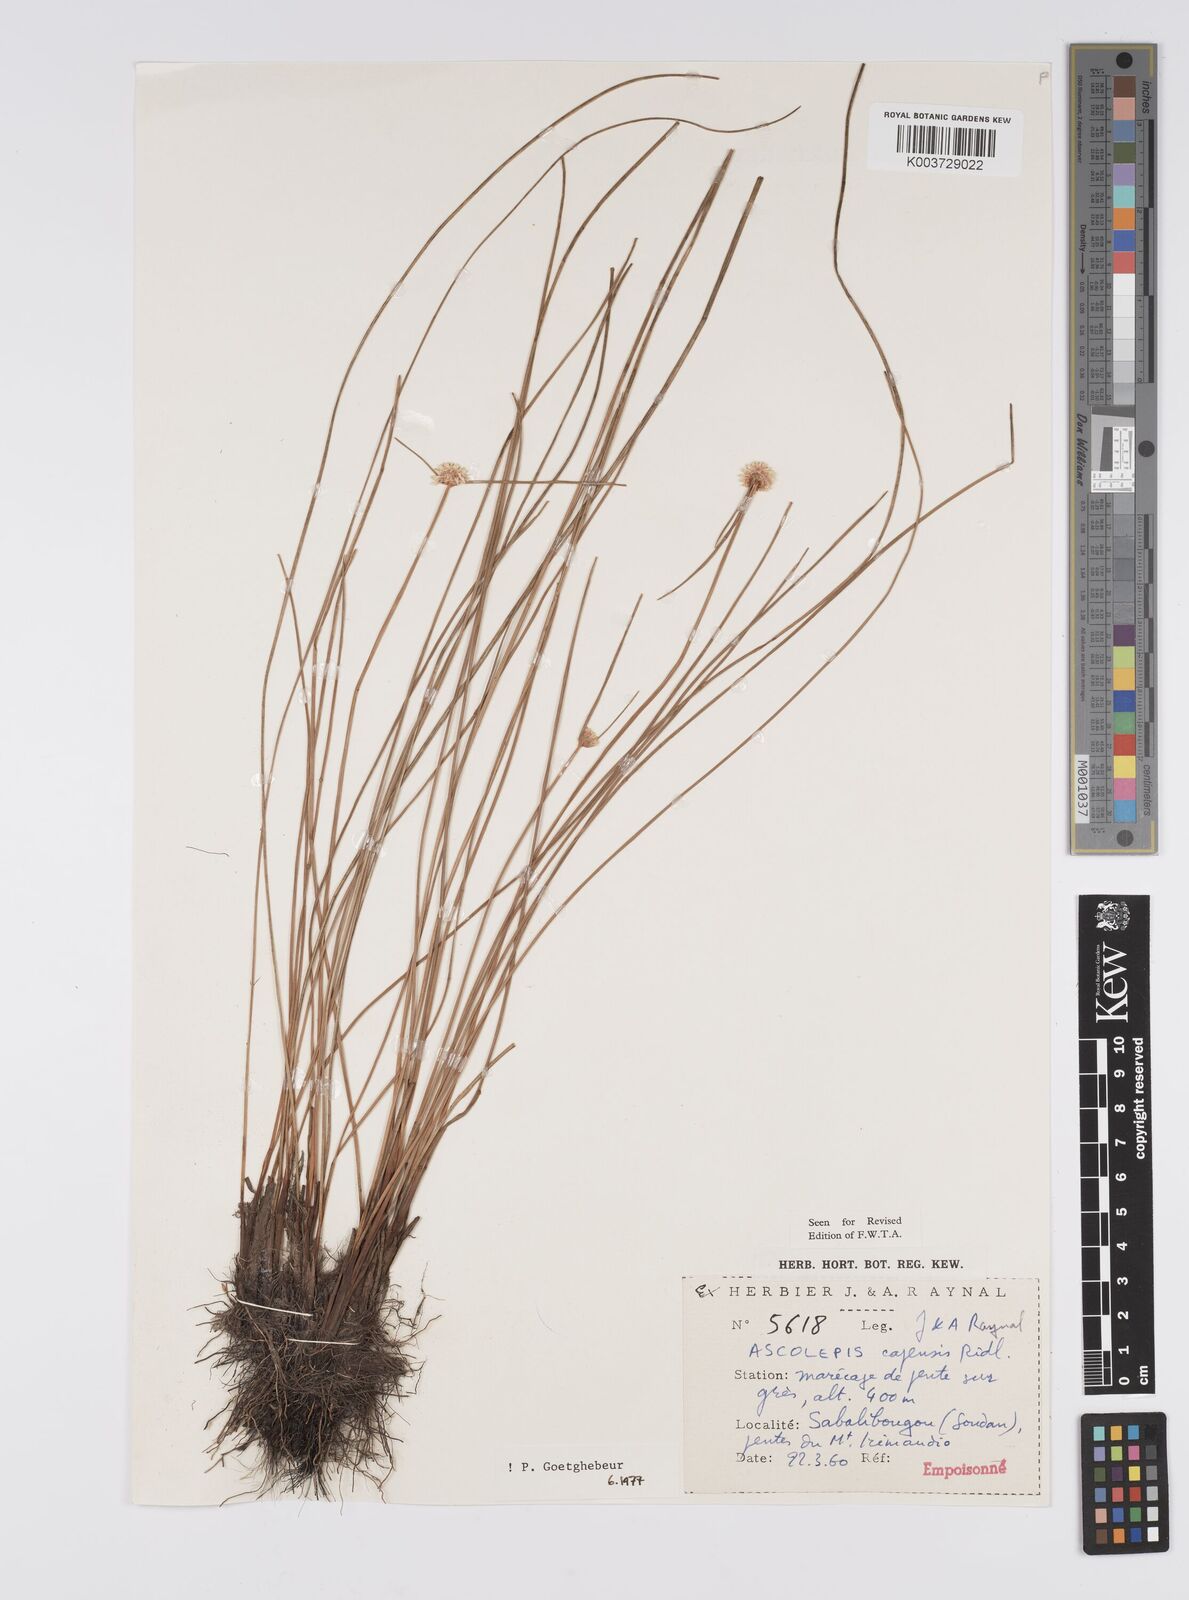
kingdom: Plantae
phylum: Tracheophyta
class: Liliopsida
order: Poales
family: Cyperaceae
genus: Ascolepis
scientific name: Ascolepis
